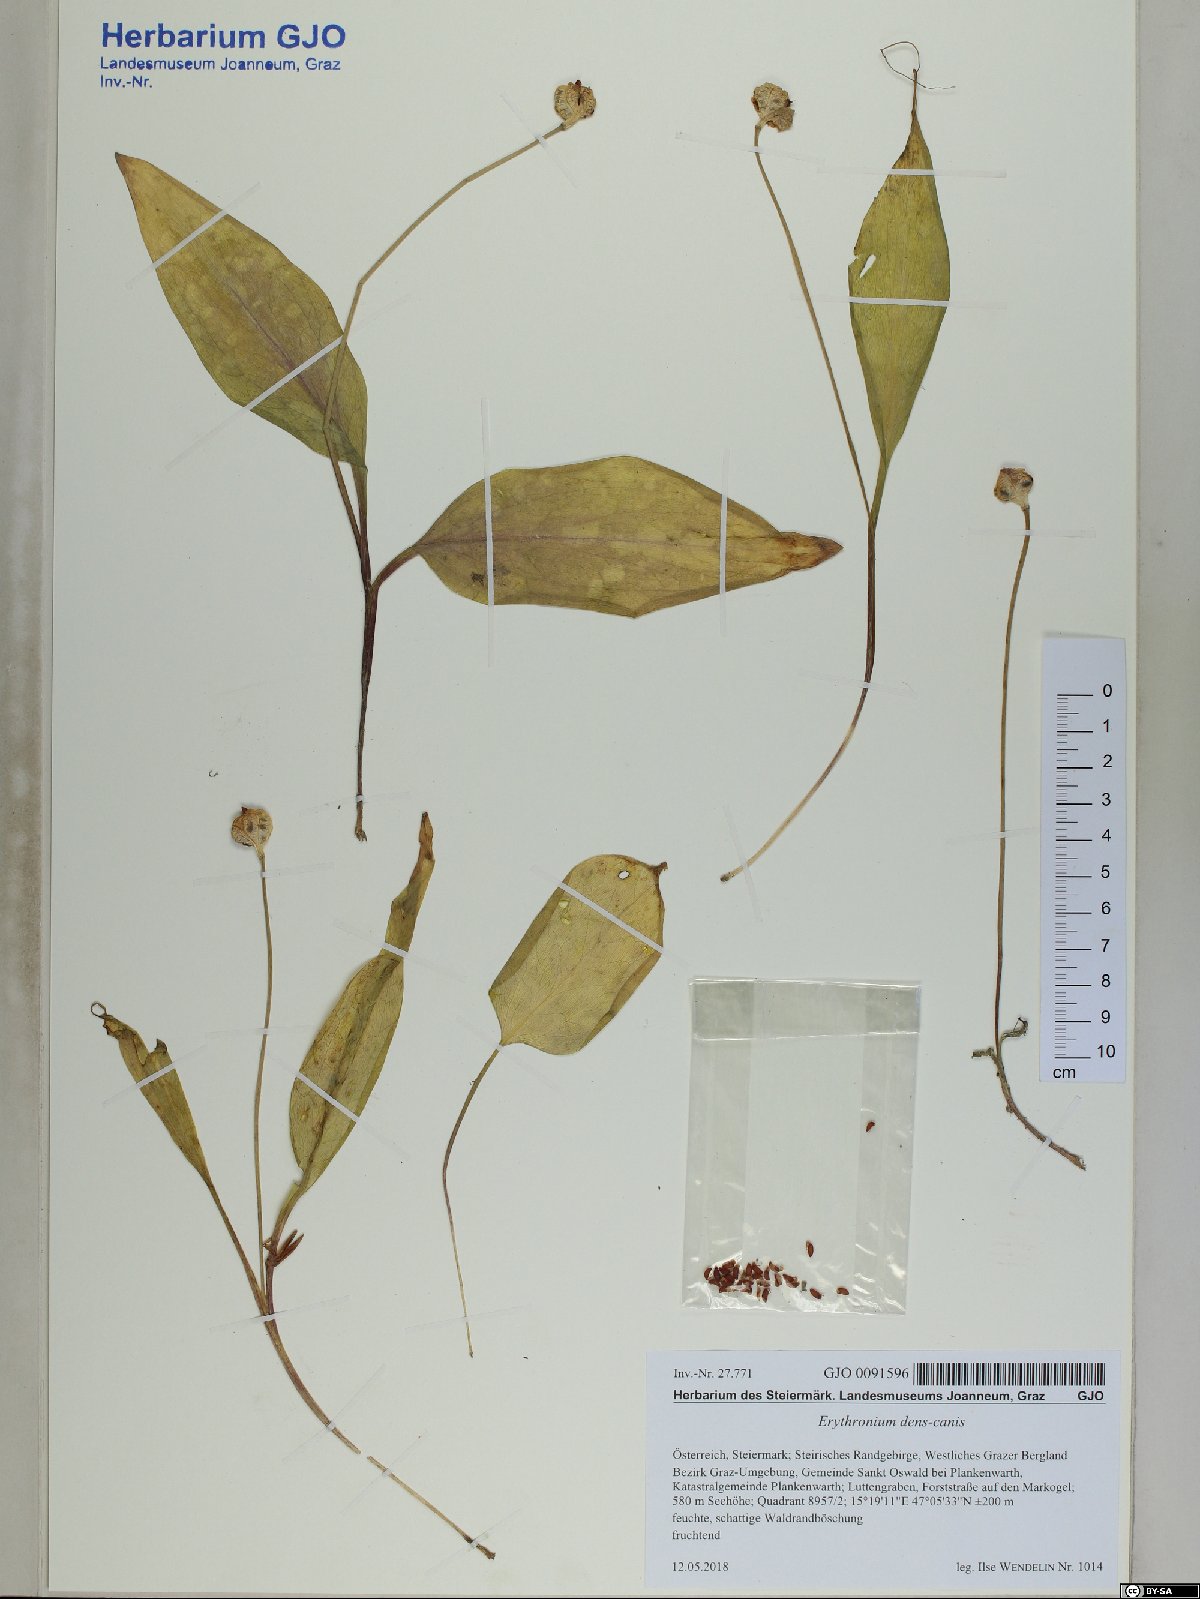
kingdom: Plantae
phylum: Tracheophyta
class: Liliopsida
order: Liliales
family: Liliaceae
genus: Erythronium
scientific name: Erythronium dens-canis
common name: Dog's-tooth-violet
